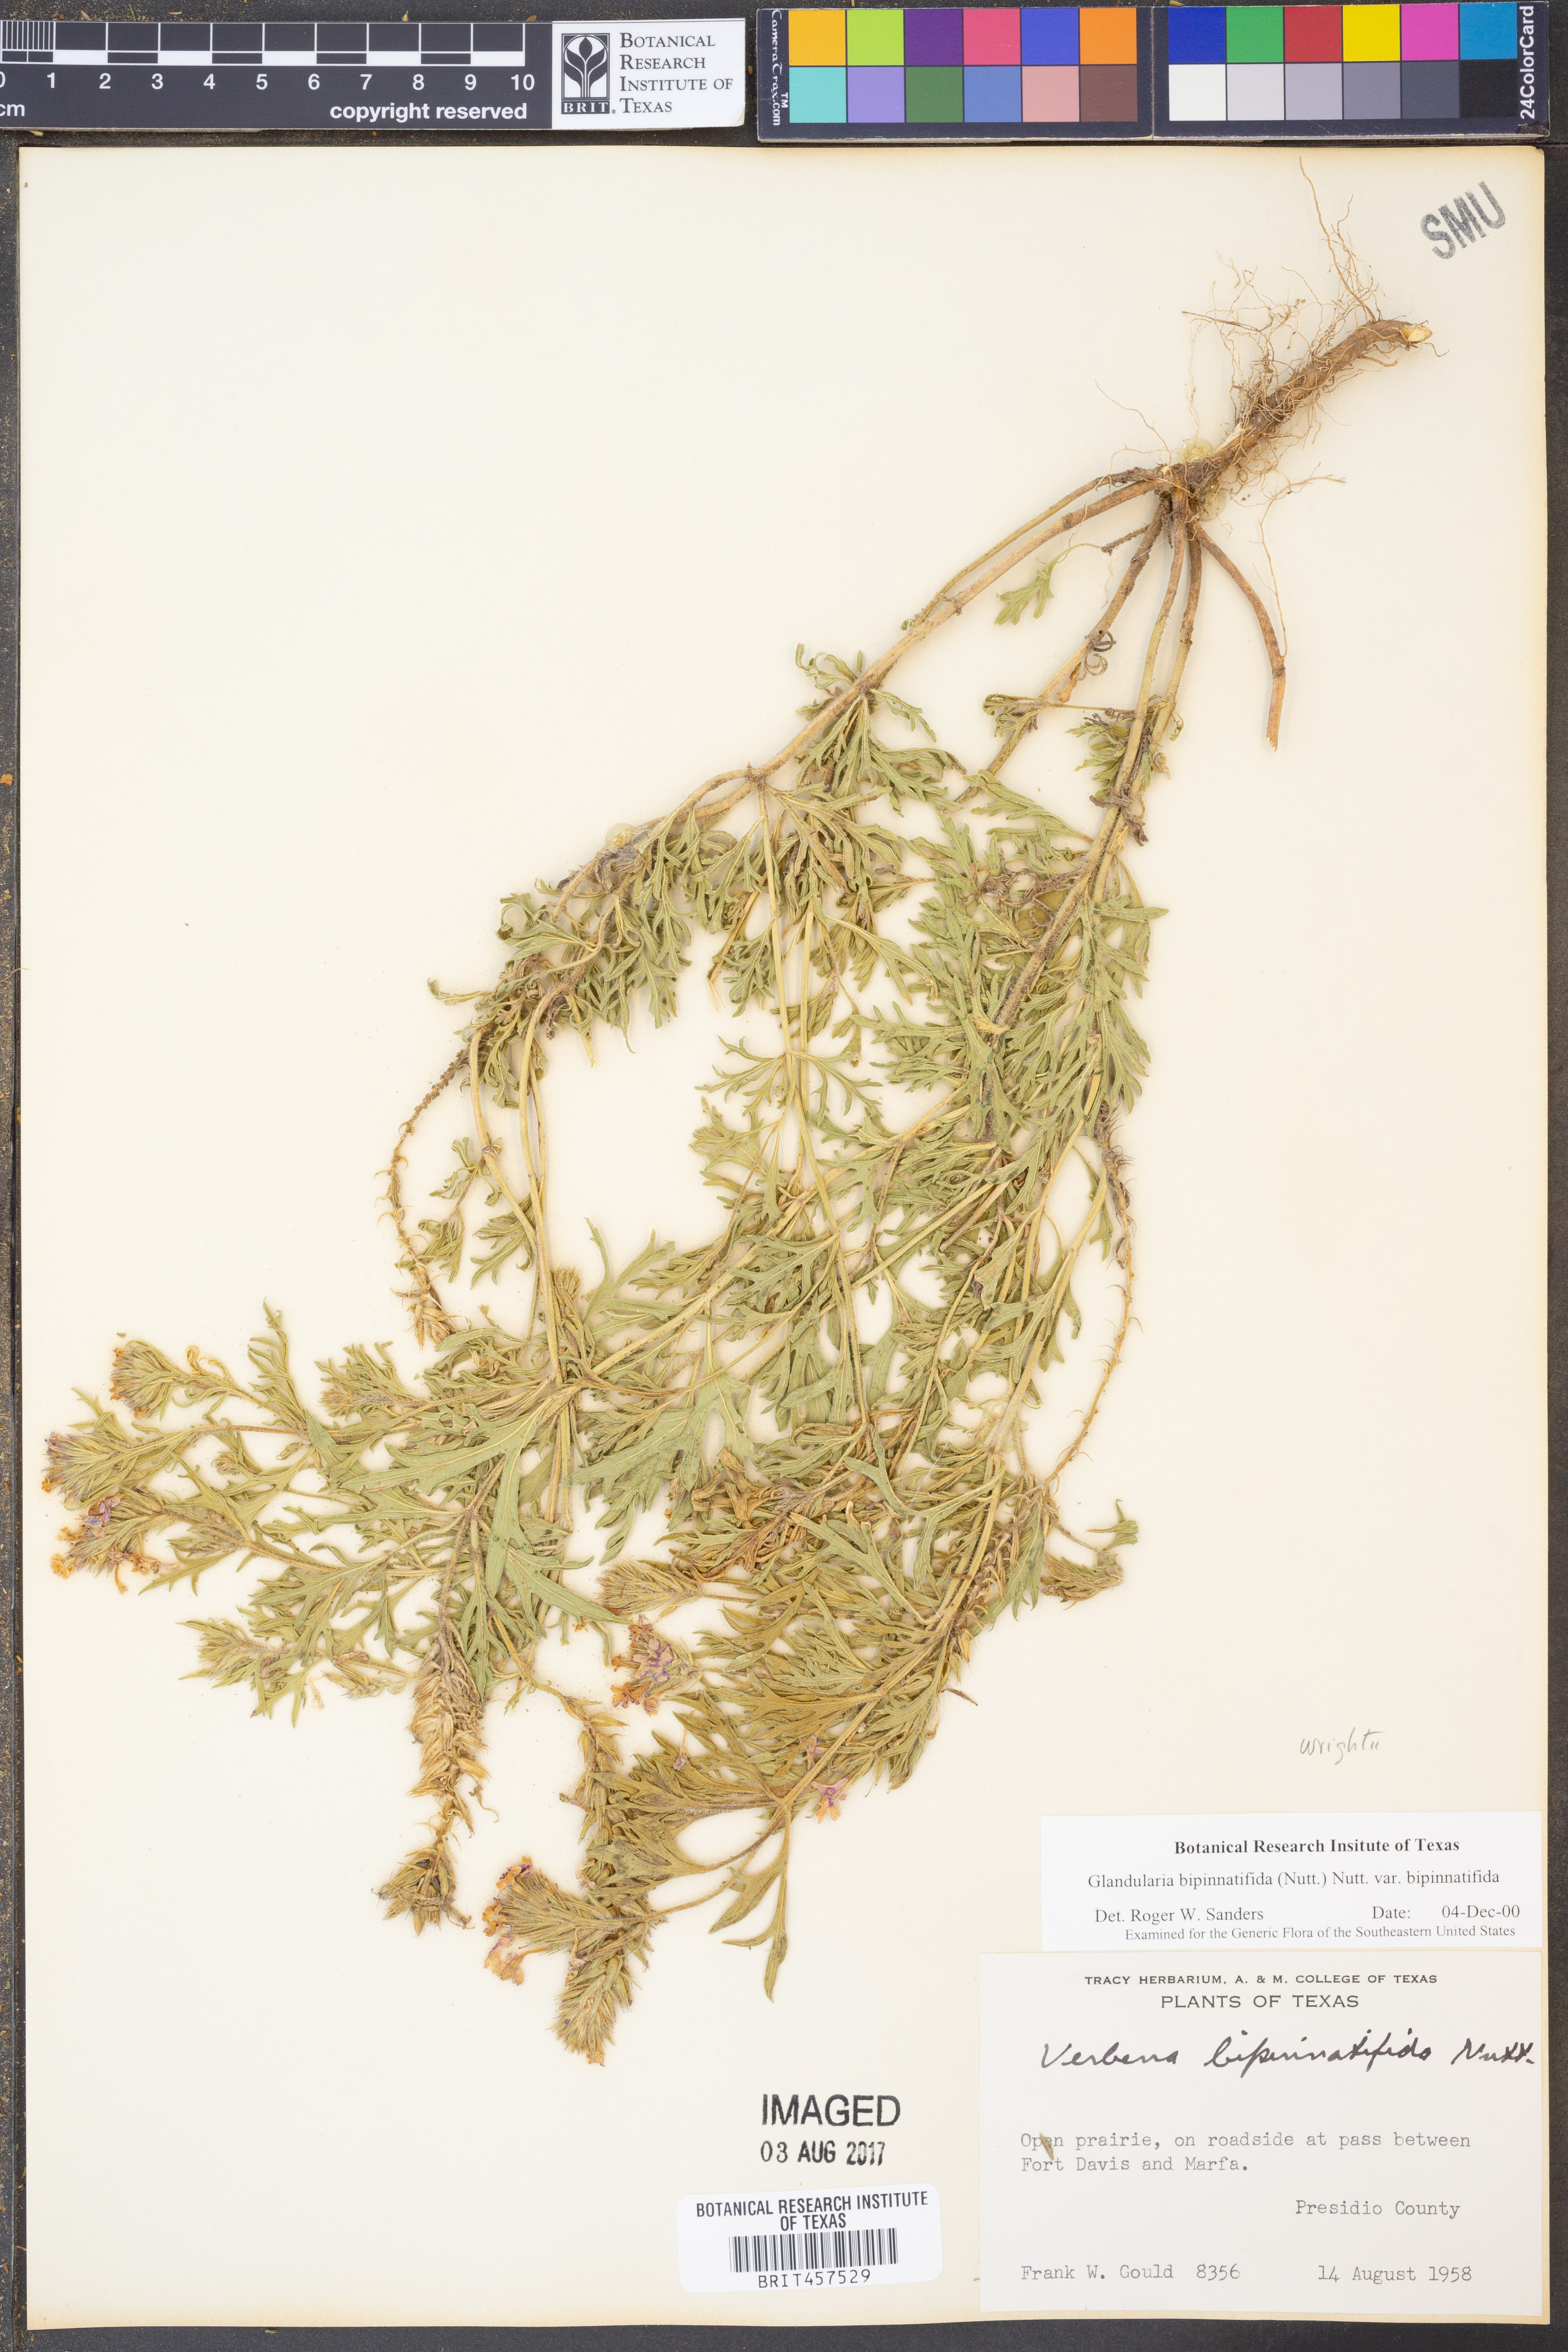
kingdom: Plantae
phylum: Tracheophyta
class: Magnoliopsida
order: Lamiales
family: Verbenaceae
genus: Verbena
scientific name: Verbena bipinnatifida
